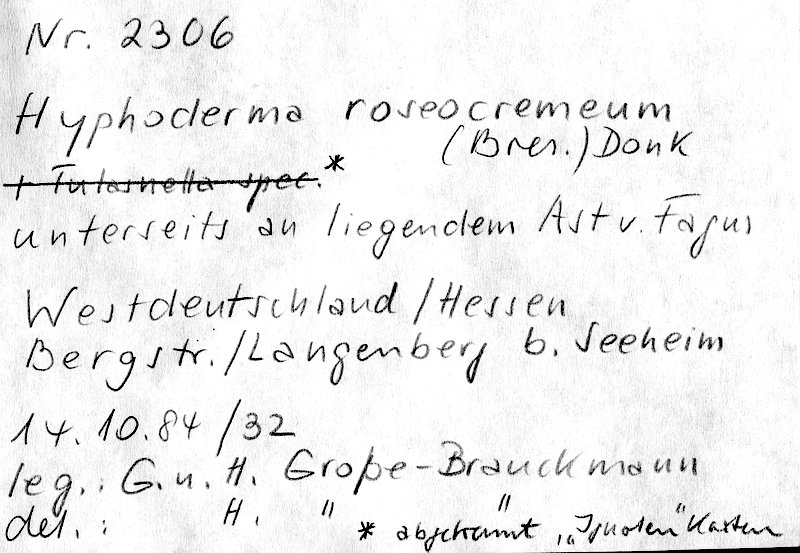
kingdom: Plantae
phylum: Tracheophyta
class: Magnoliopsida
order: Fagales
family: Fagaceae
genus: Fagus
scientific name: Fagus sylvatica
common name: Beech
